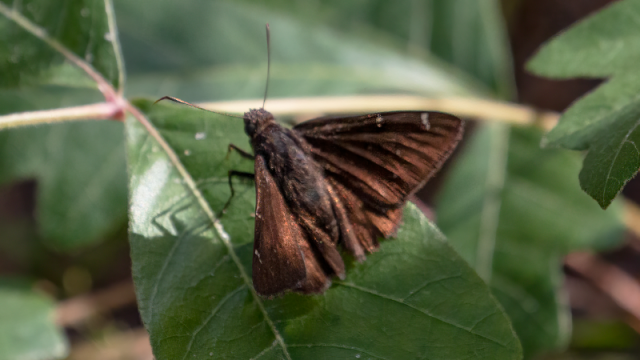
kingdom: Animalia
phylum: Arthropoda
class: Insecta
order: Lepidoptera
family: Hesperiidae
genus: Autochton
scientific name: Autochton
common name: Northern Cloudywing
